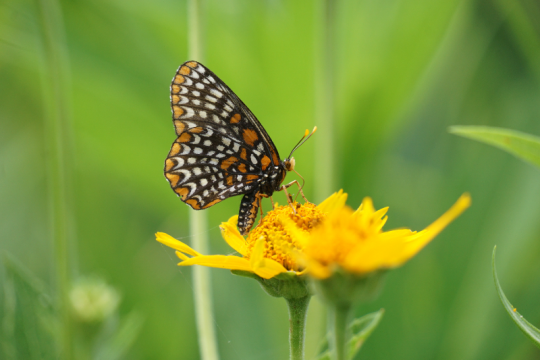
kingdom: Animalia
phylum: Arthropoda
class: Insecta
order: Lepidoptera
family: Nymphalidae
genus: Euphydryas
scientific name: Euphydryas phaeton
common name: Baltimore Checkerspot
